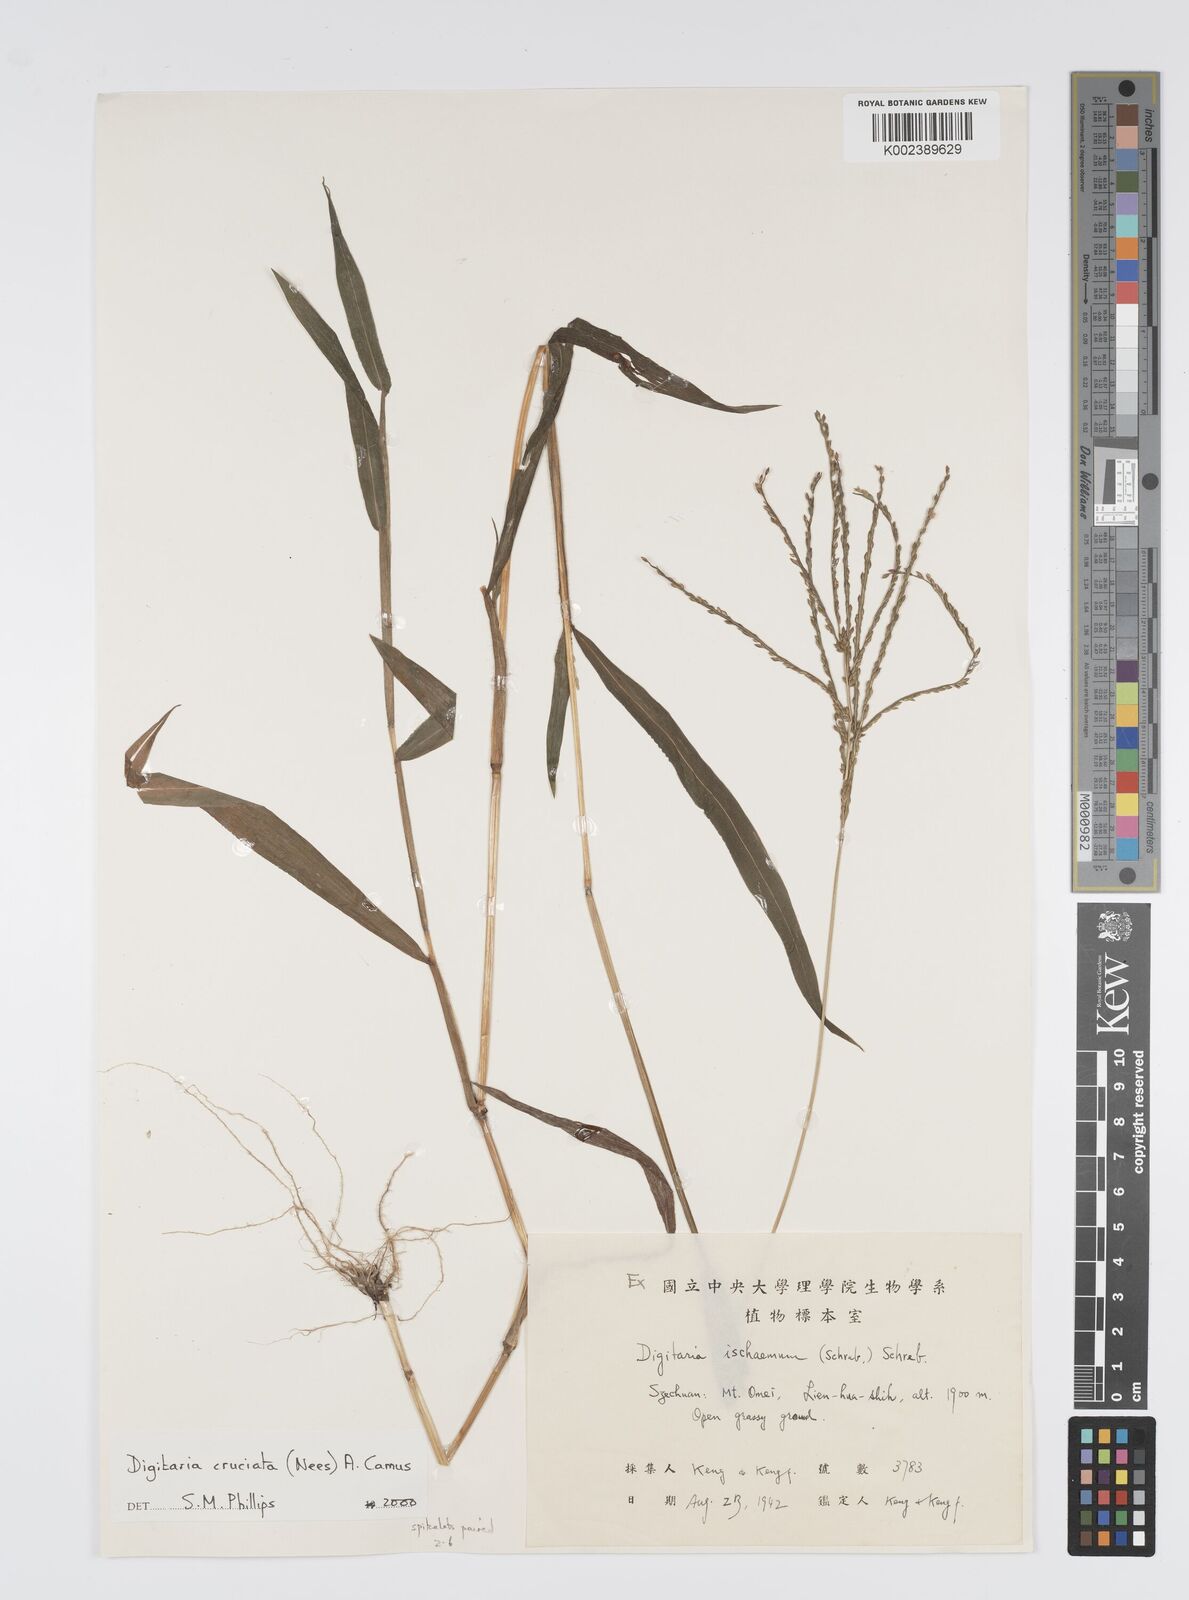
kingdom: Plantae
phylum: Tracheophyta
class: Liliopsida
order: Poales
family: Poaceae
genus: Digitaria
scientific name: Digitaria cruciata
